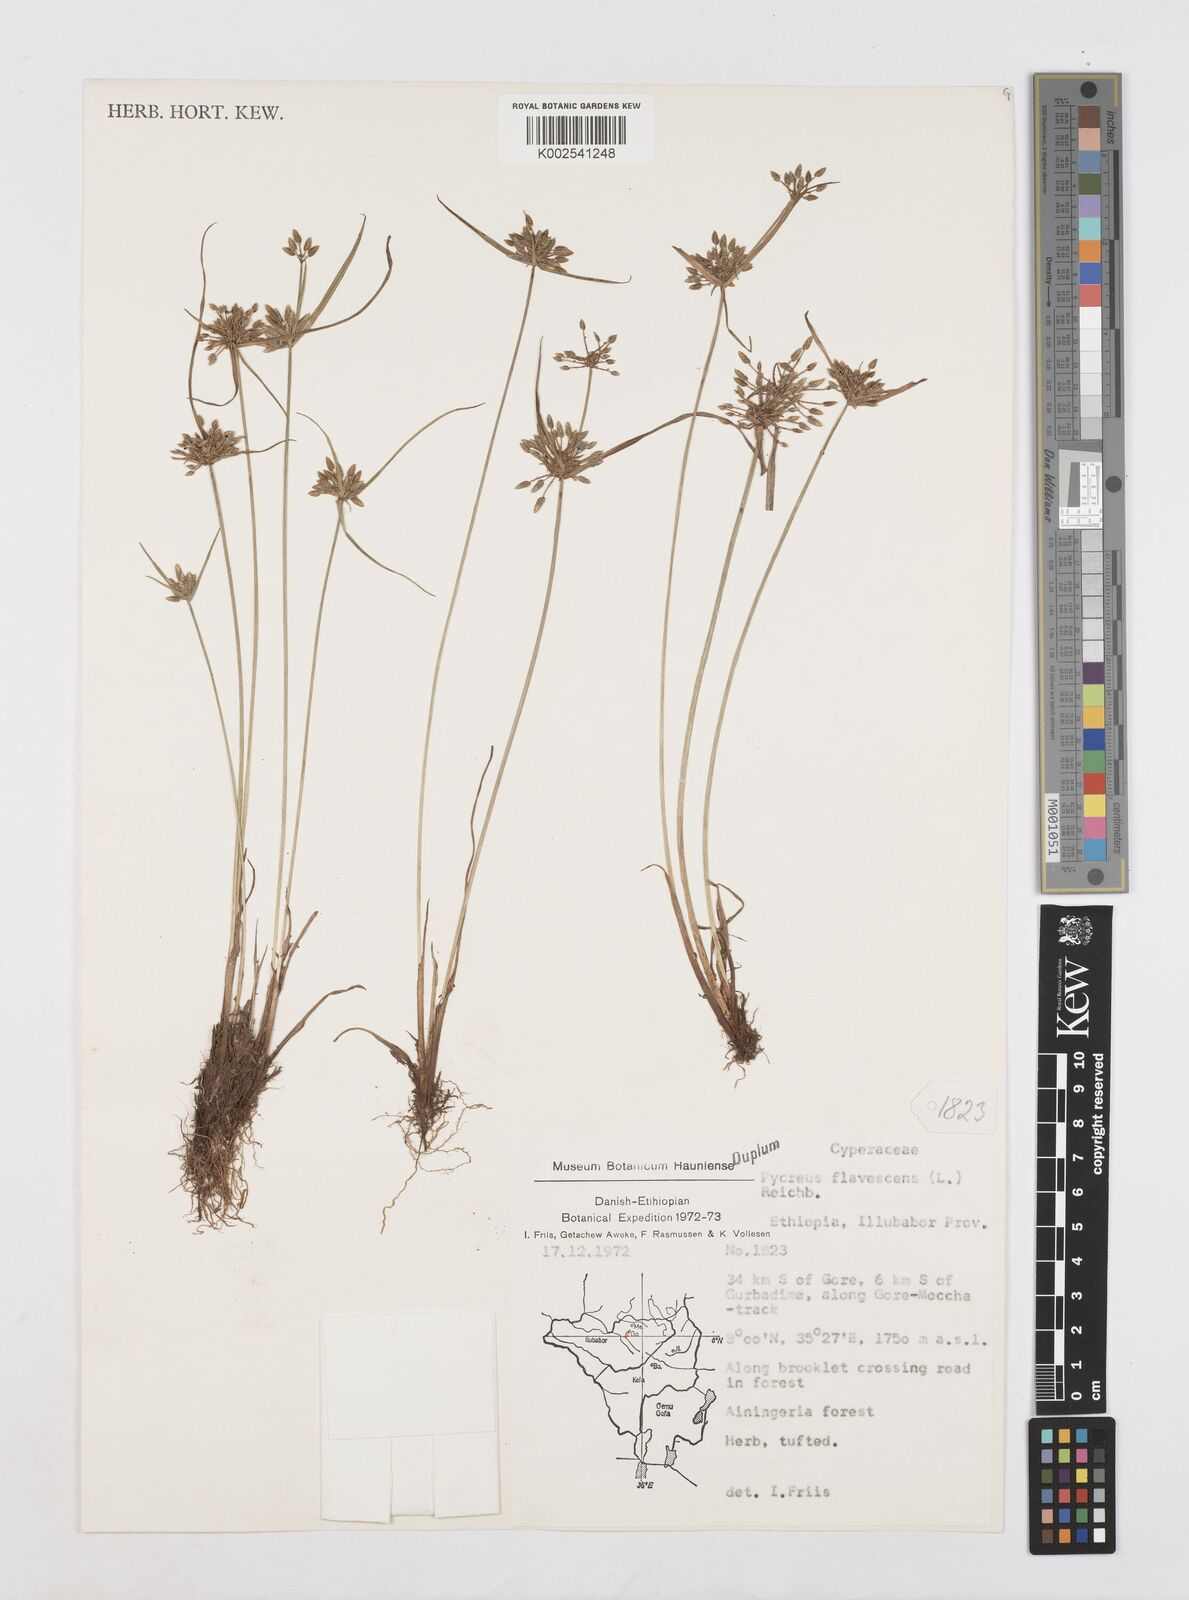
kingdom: Plantae
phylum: Tracheophyta
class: Liliopsida
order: Poales
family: Cyperaceae
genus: Cyperus
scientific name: Cyperus flavescens
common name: Yellow galingale
